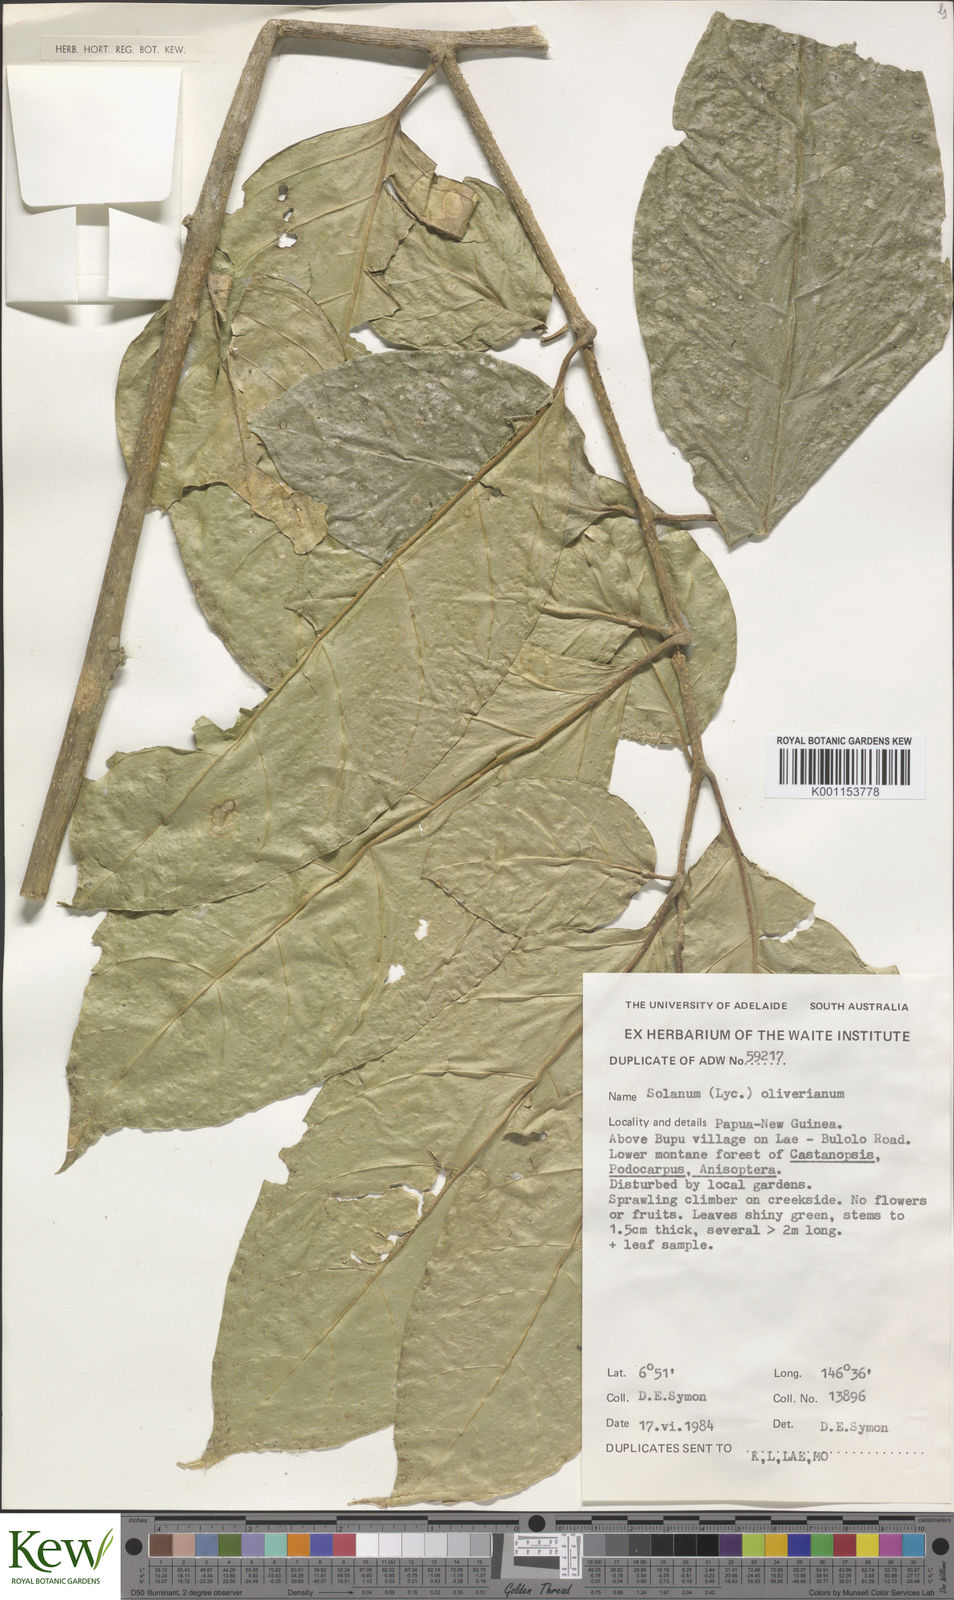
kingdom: Plantae
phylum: Tracheophyta
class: Magnoliopsida
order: Solanales
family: Solanaceae
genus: Lycianthes
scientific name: Lycianthes oliveriana
